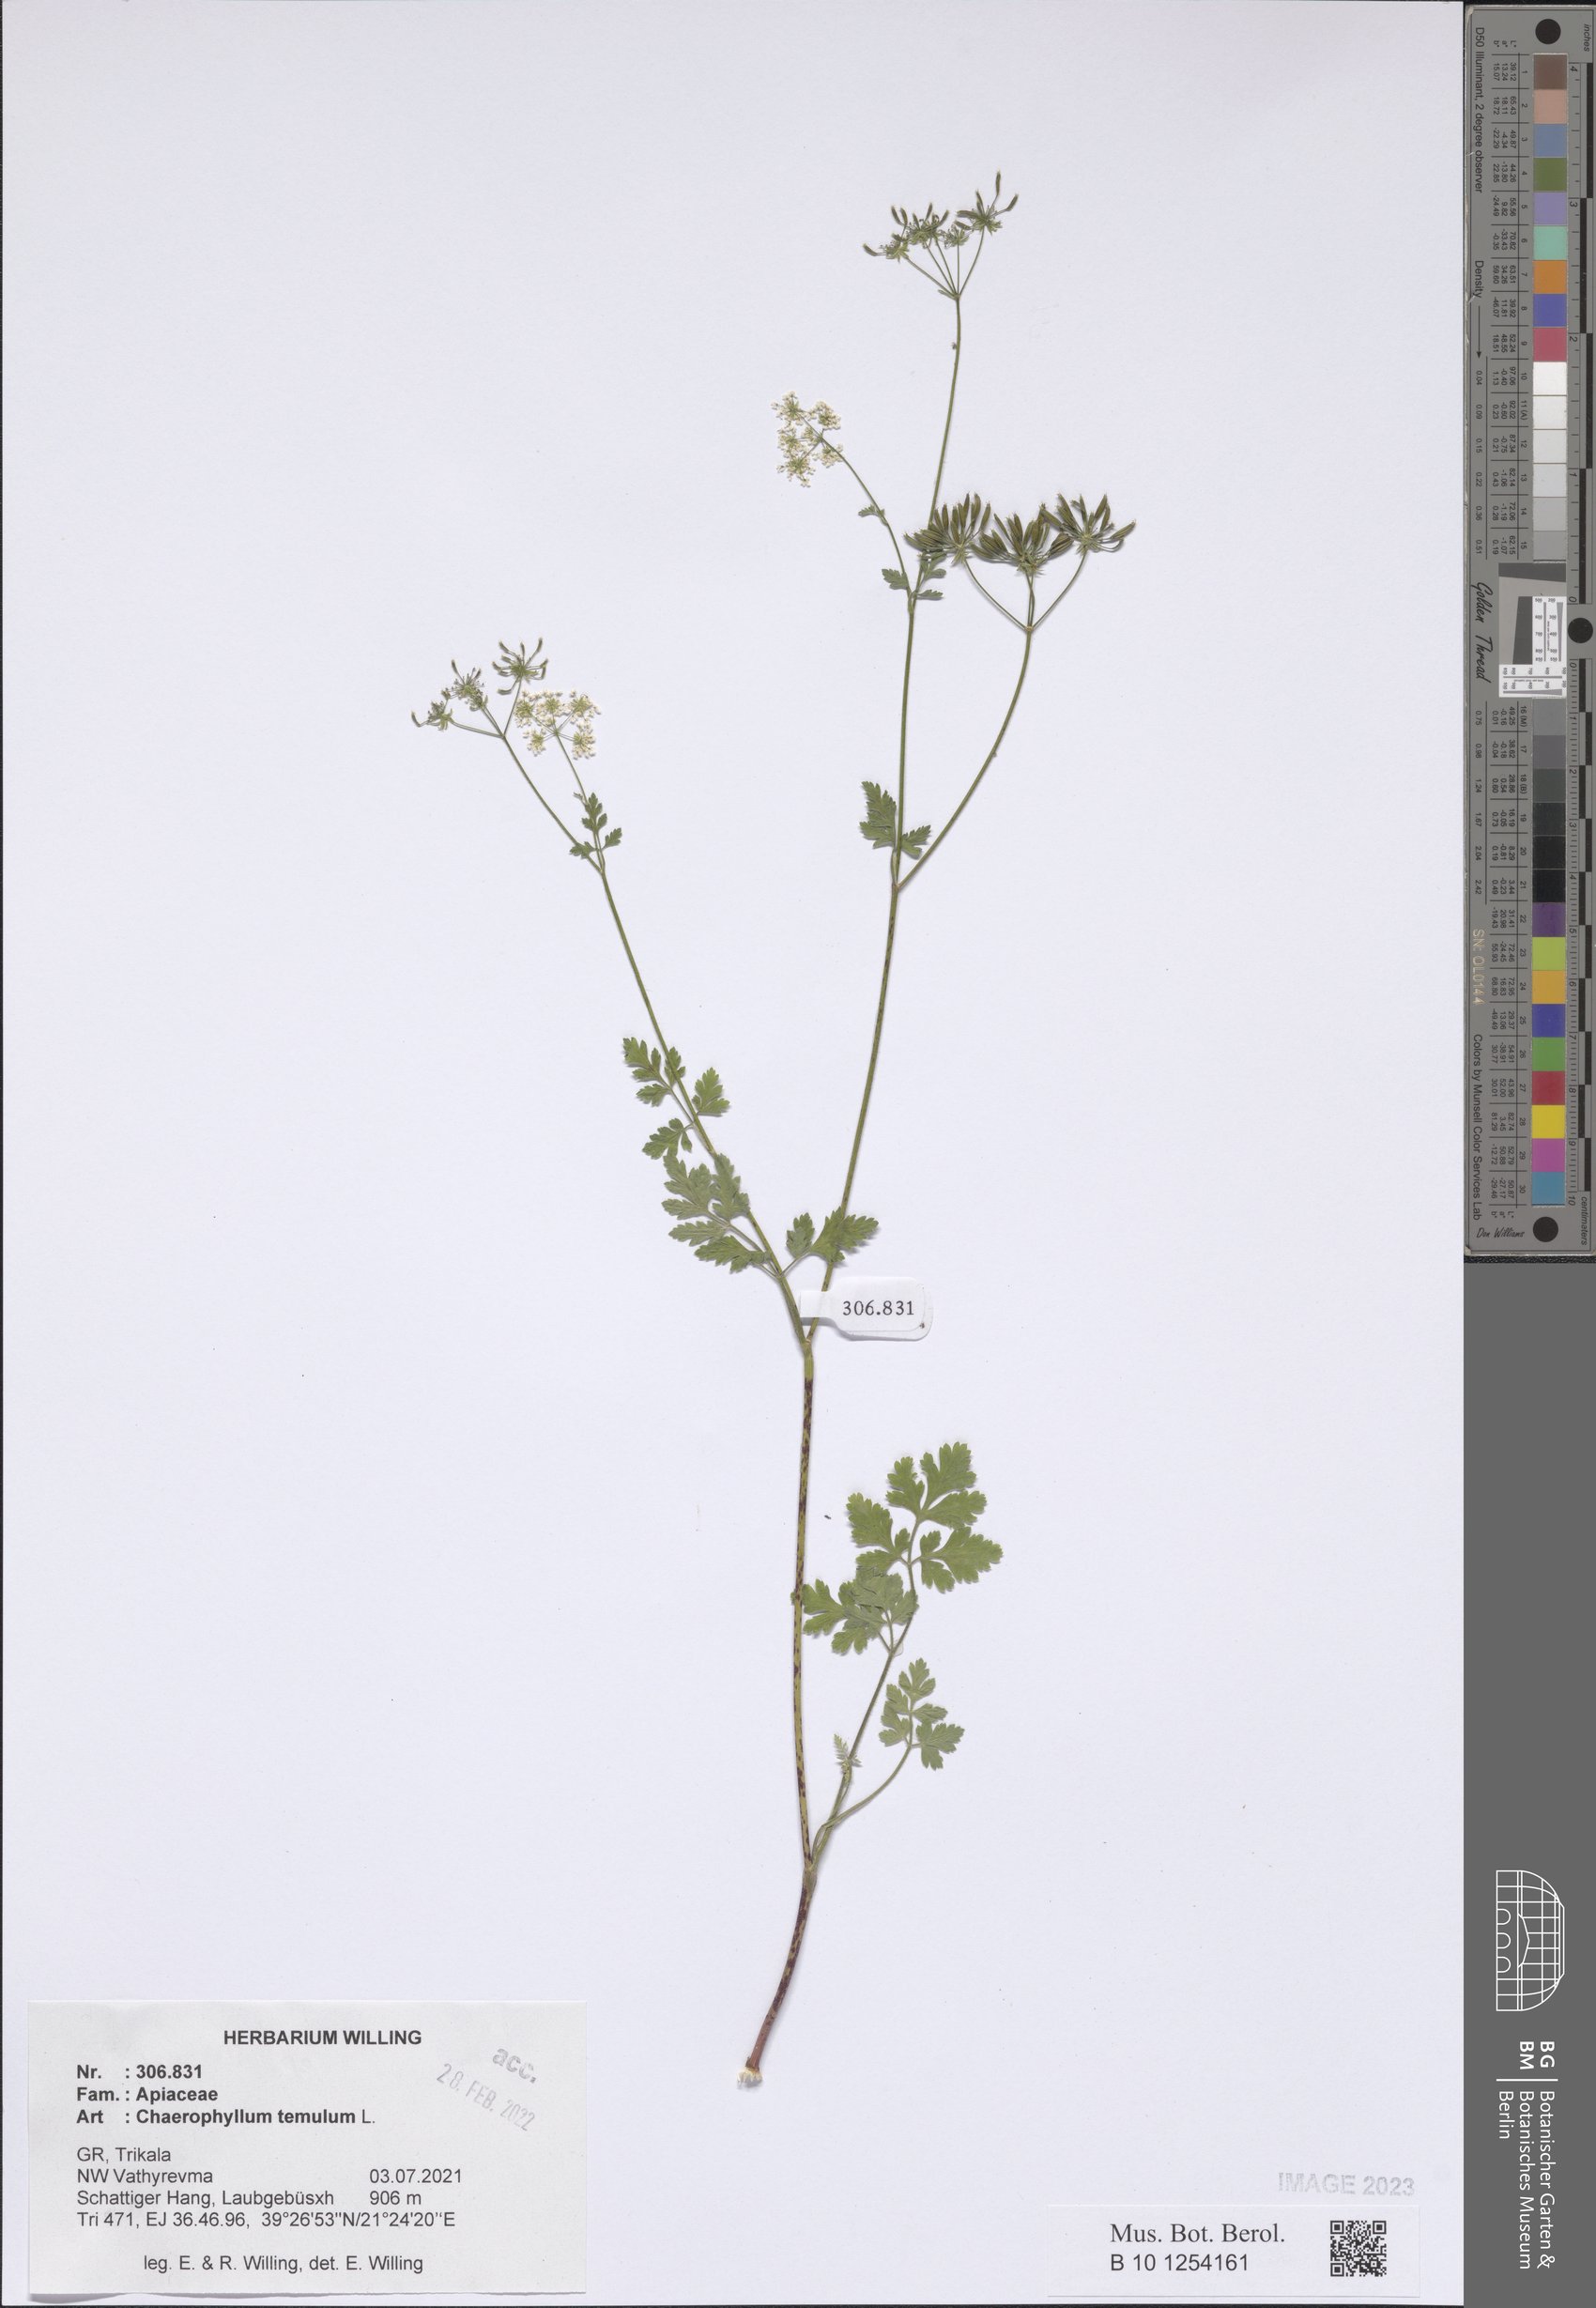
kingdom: Plantae
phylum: Tracheophyta
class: Magnoliopsida
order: Apiales
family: Apiaceae
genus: Chaerophyllum
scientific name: Chaerophyllum temulum
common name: Rough chervil
